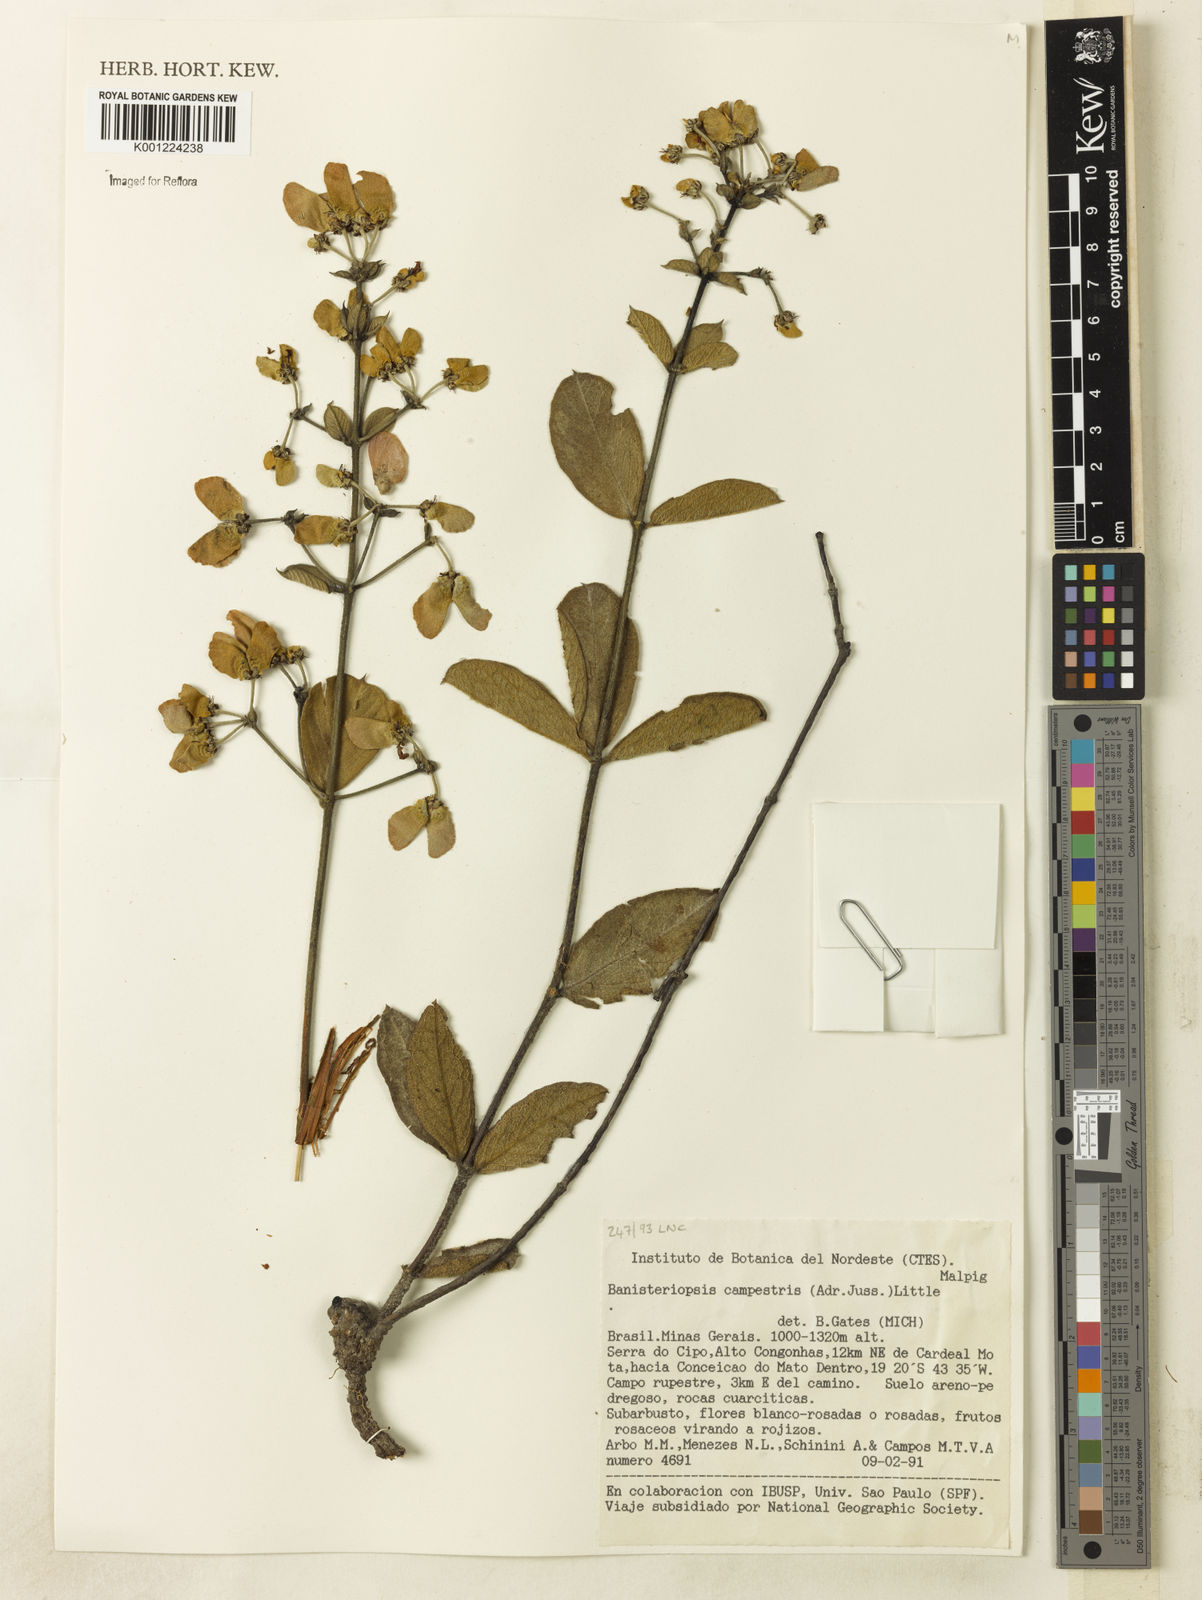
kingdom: Plantae
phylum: Tracheophyta
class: Magnoliopsida
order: Malpighiales
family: Malpighiaceae
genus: Banisteriopsis
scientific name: Banisteriopsis campestris
